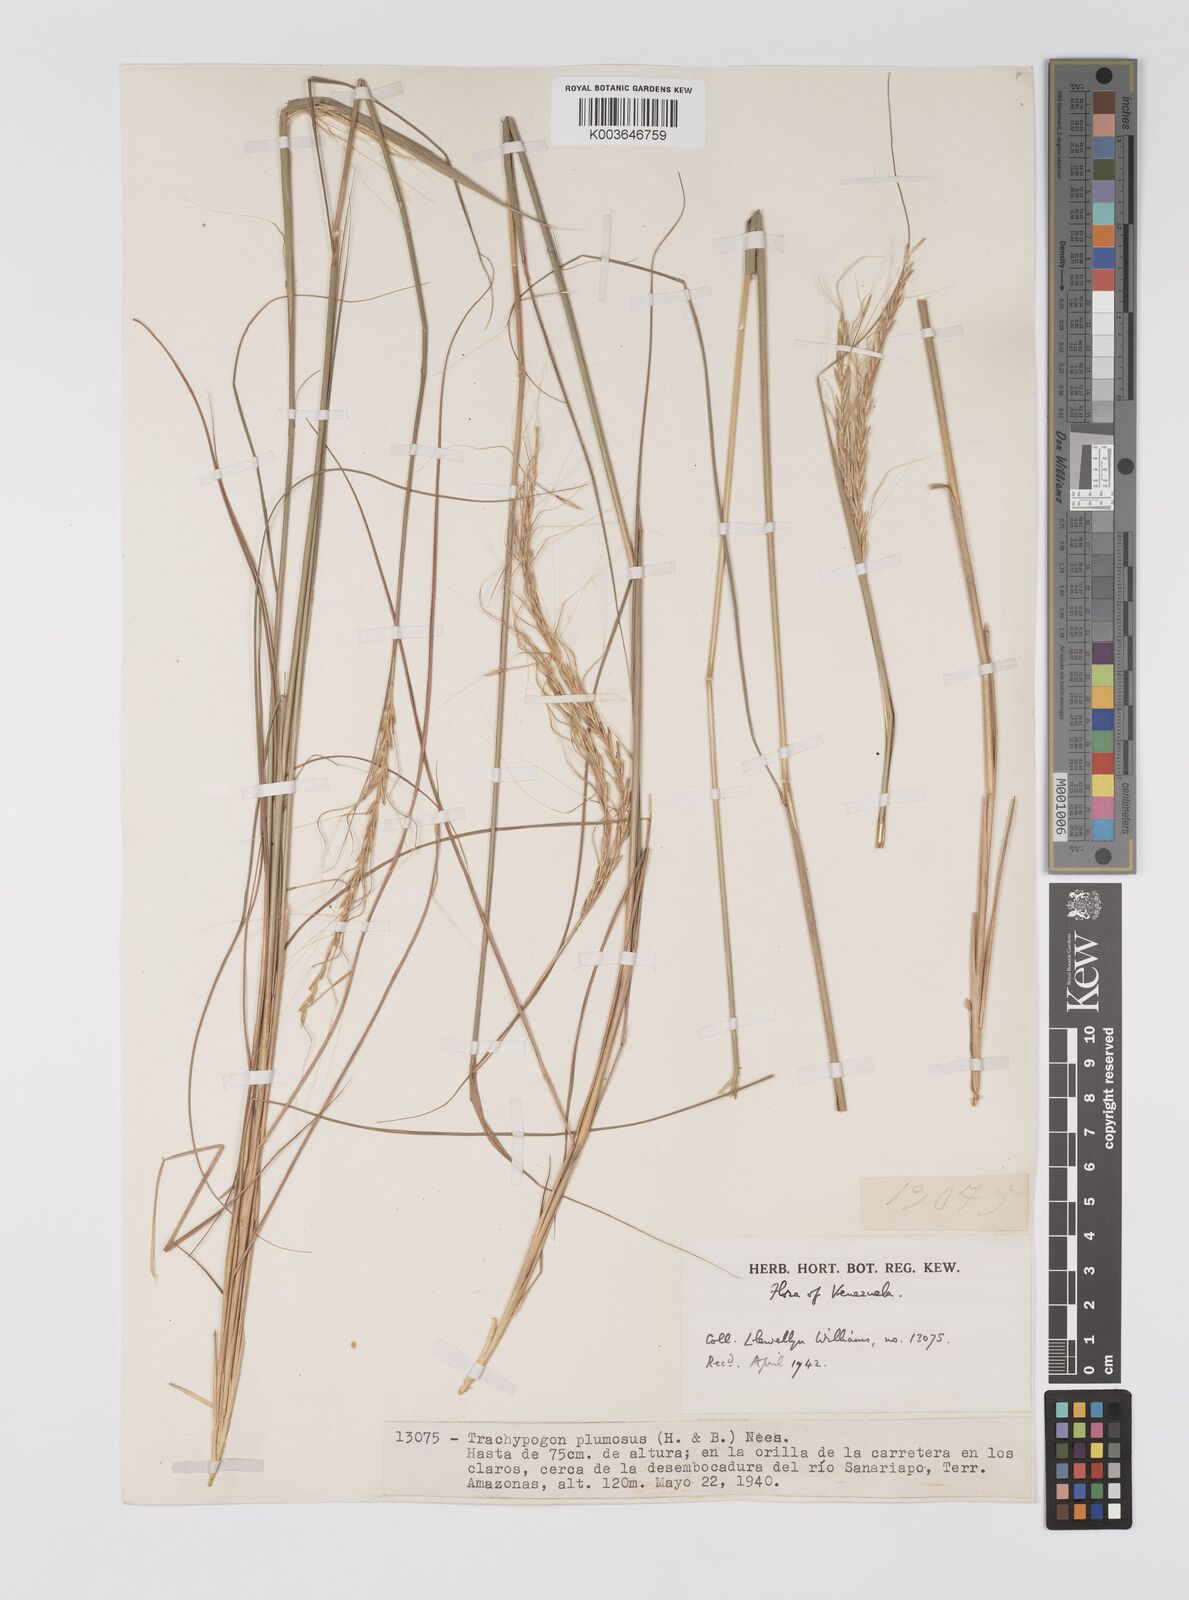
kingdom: Plantae
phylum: Tracheophyta
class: Liliopsida
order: Poales
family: Poaceae
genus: Trachypogon
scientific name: Trachypogon spicatus
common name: Crinkle-awn
